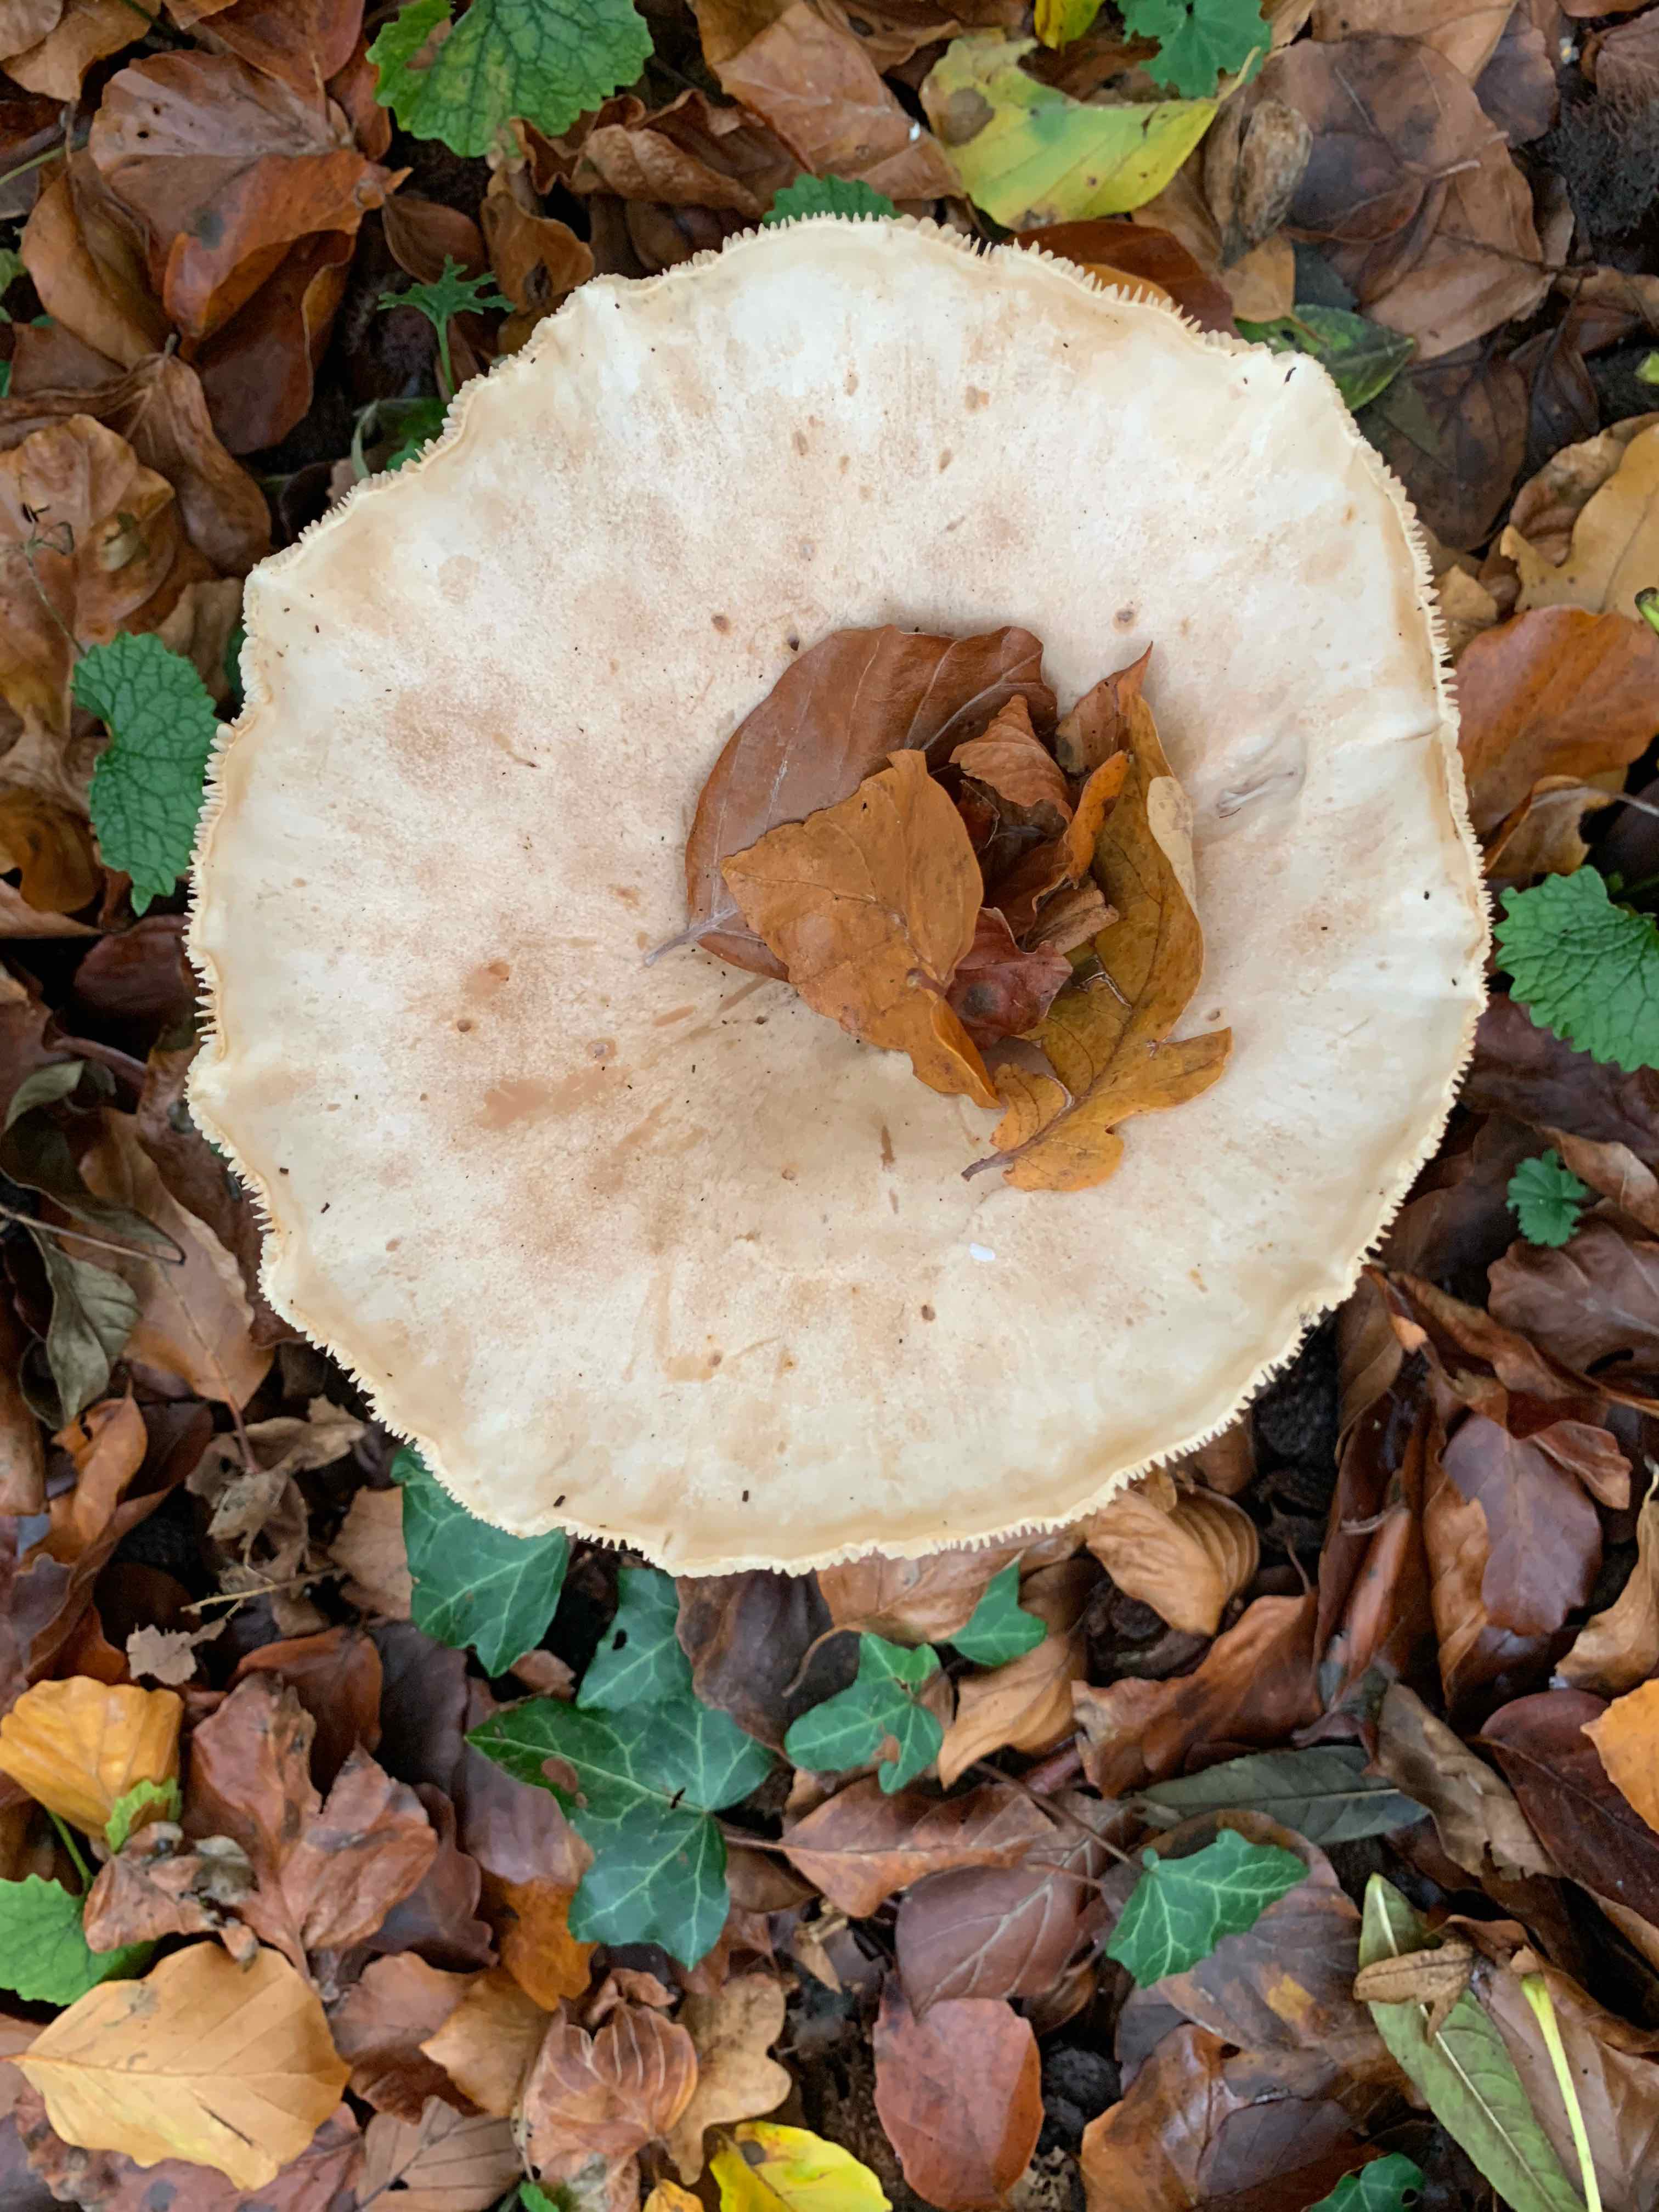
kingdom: Fungi
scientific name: Fungi
